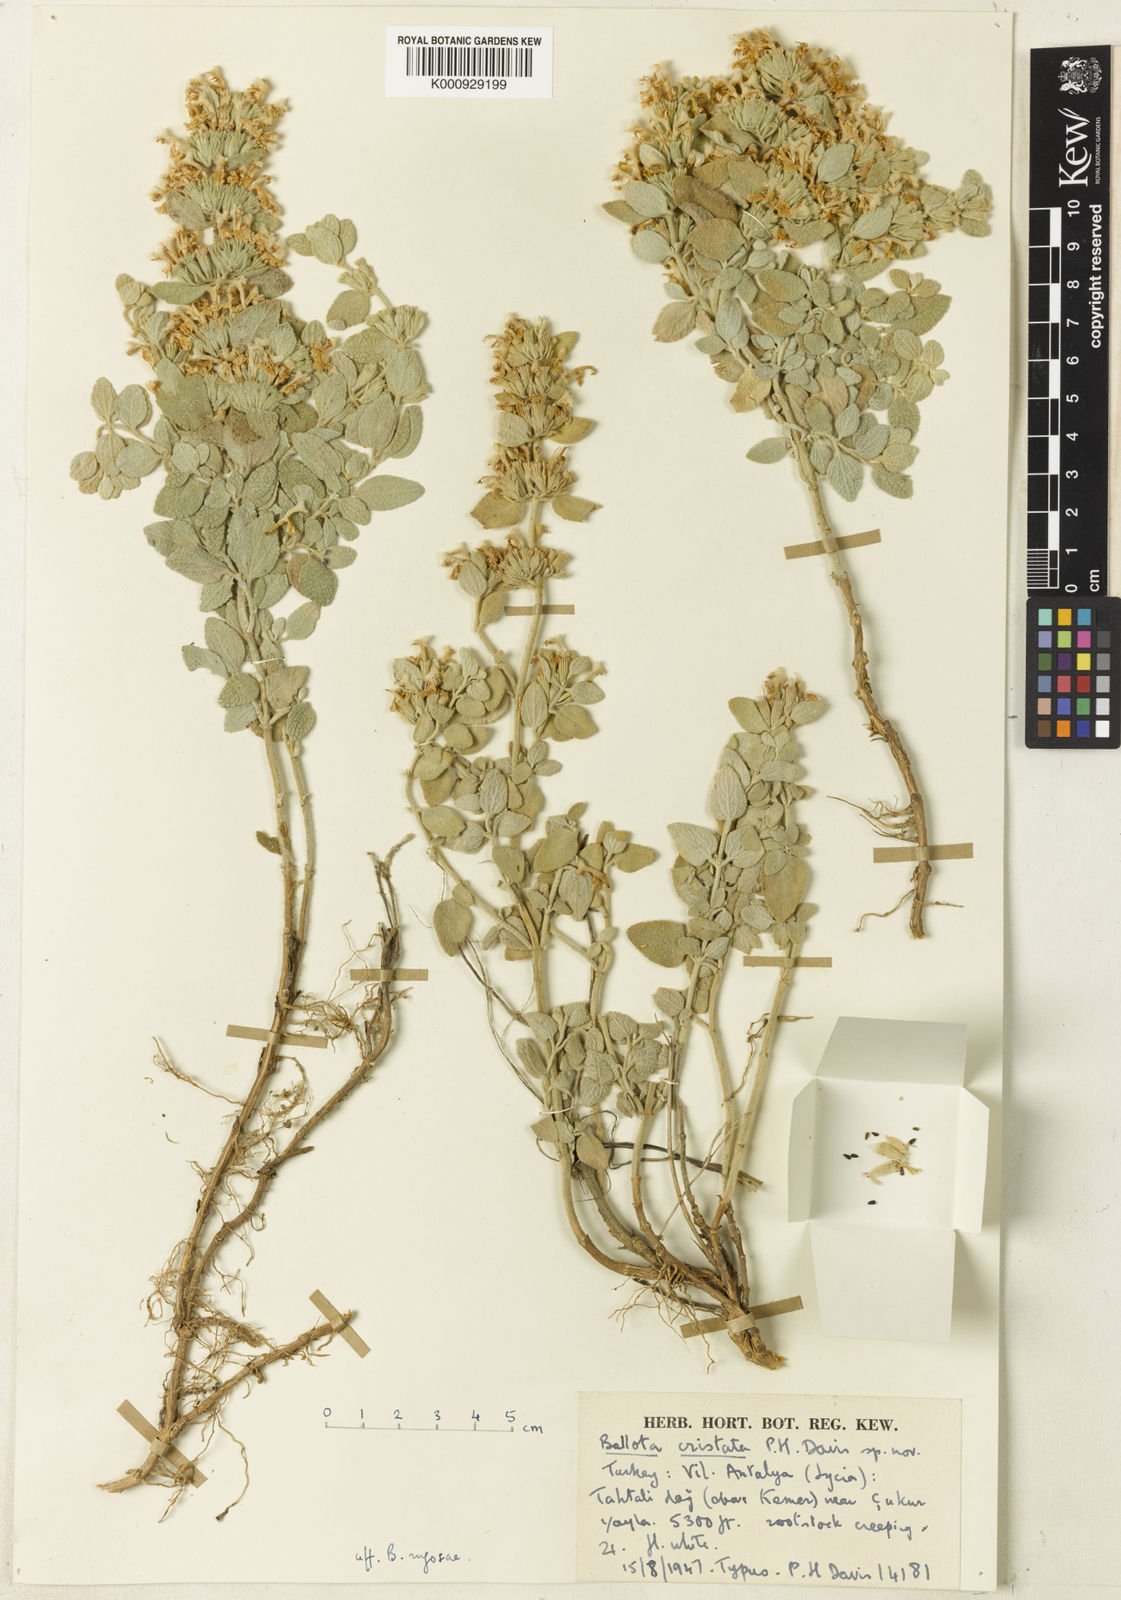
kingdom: Plantae
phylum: Tracheophyta
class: Magnoliopsida
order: Lamiales
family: Lamiaceae
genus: Ballota
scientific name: Ballota cristata
